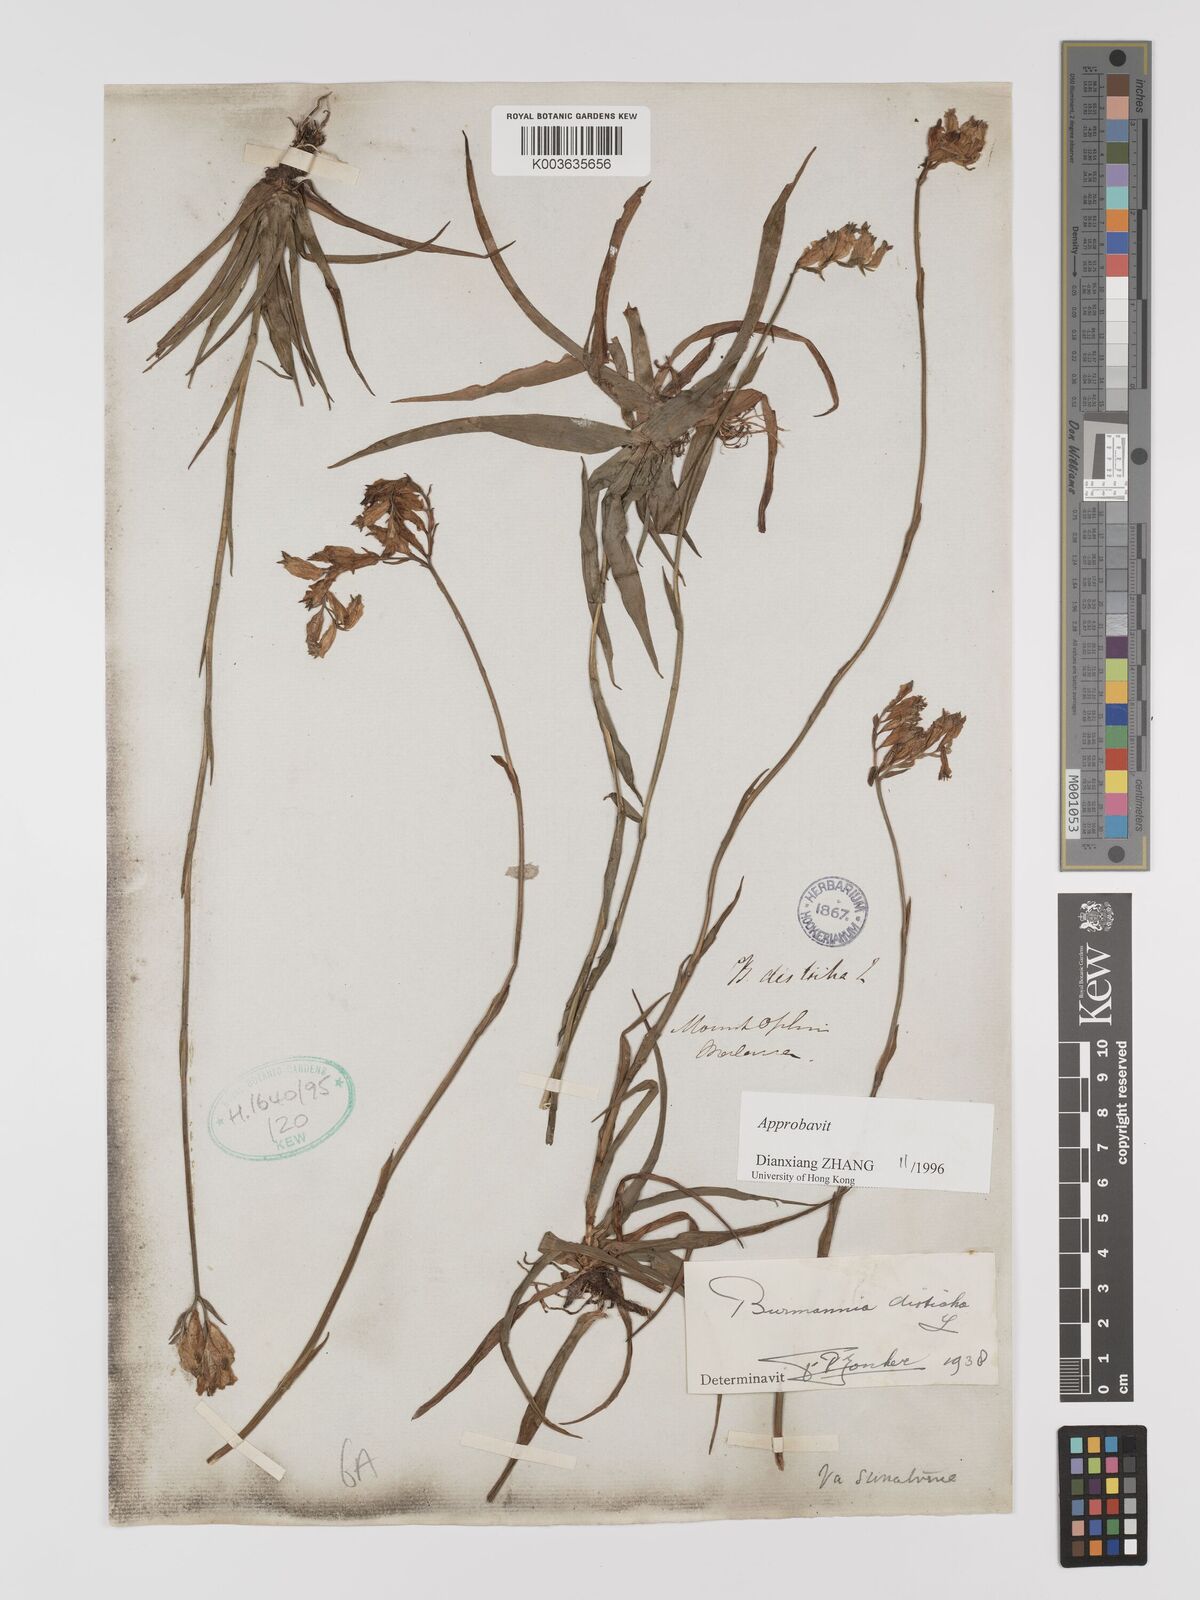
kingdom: Plantae
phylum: Tracheophyta
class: Liliopsida
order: Dioscoreales
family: Burmanniaceae
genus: Burmannia
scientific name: Burmannia disticha
